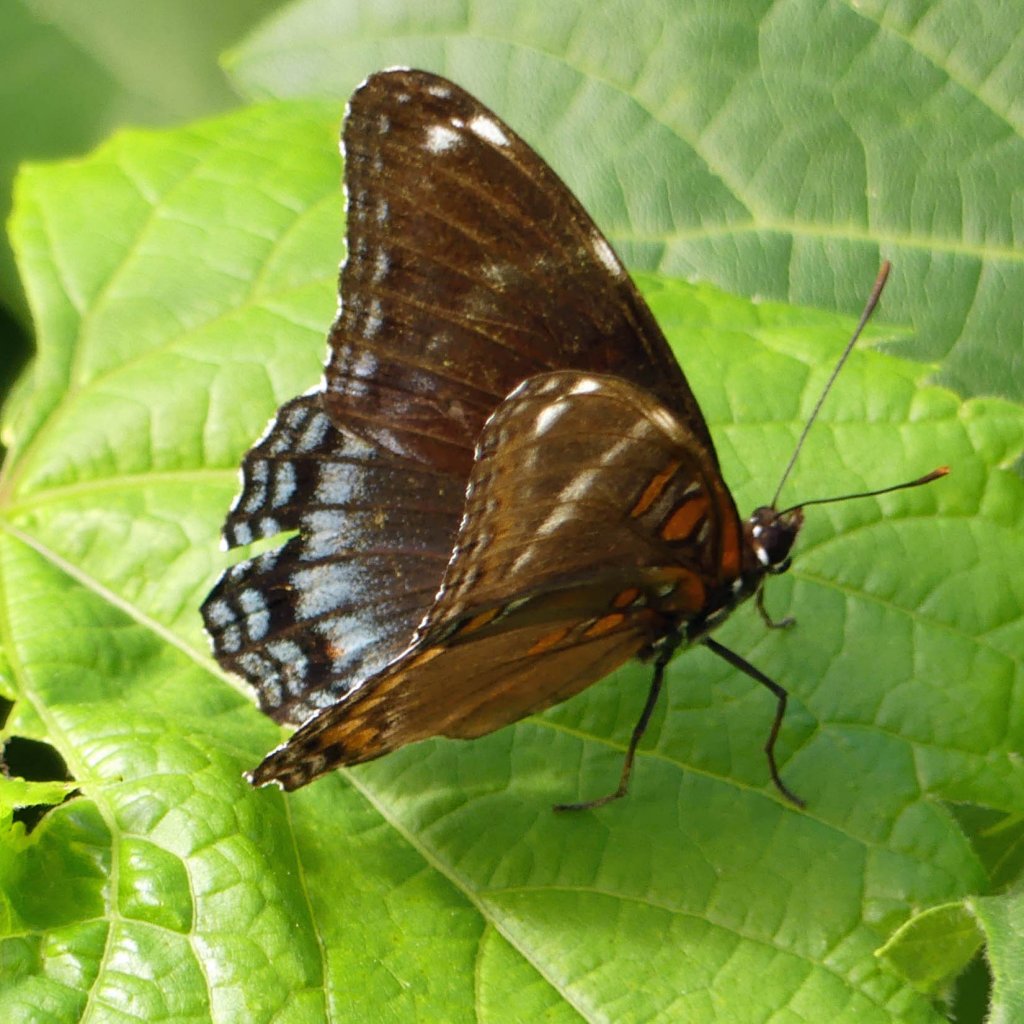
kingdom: Animalia
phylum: Arthropoda
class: Insecta
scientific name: Insecta
